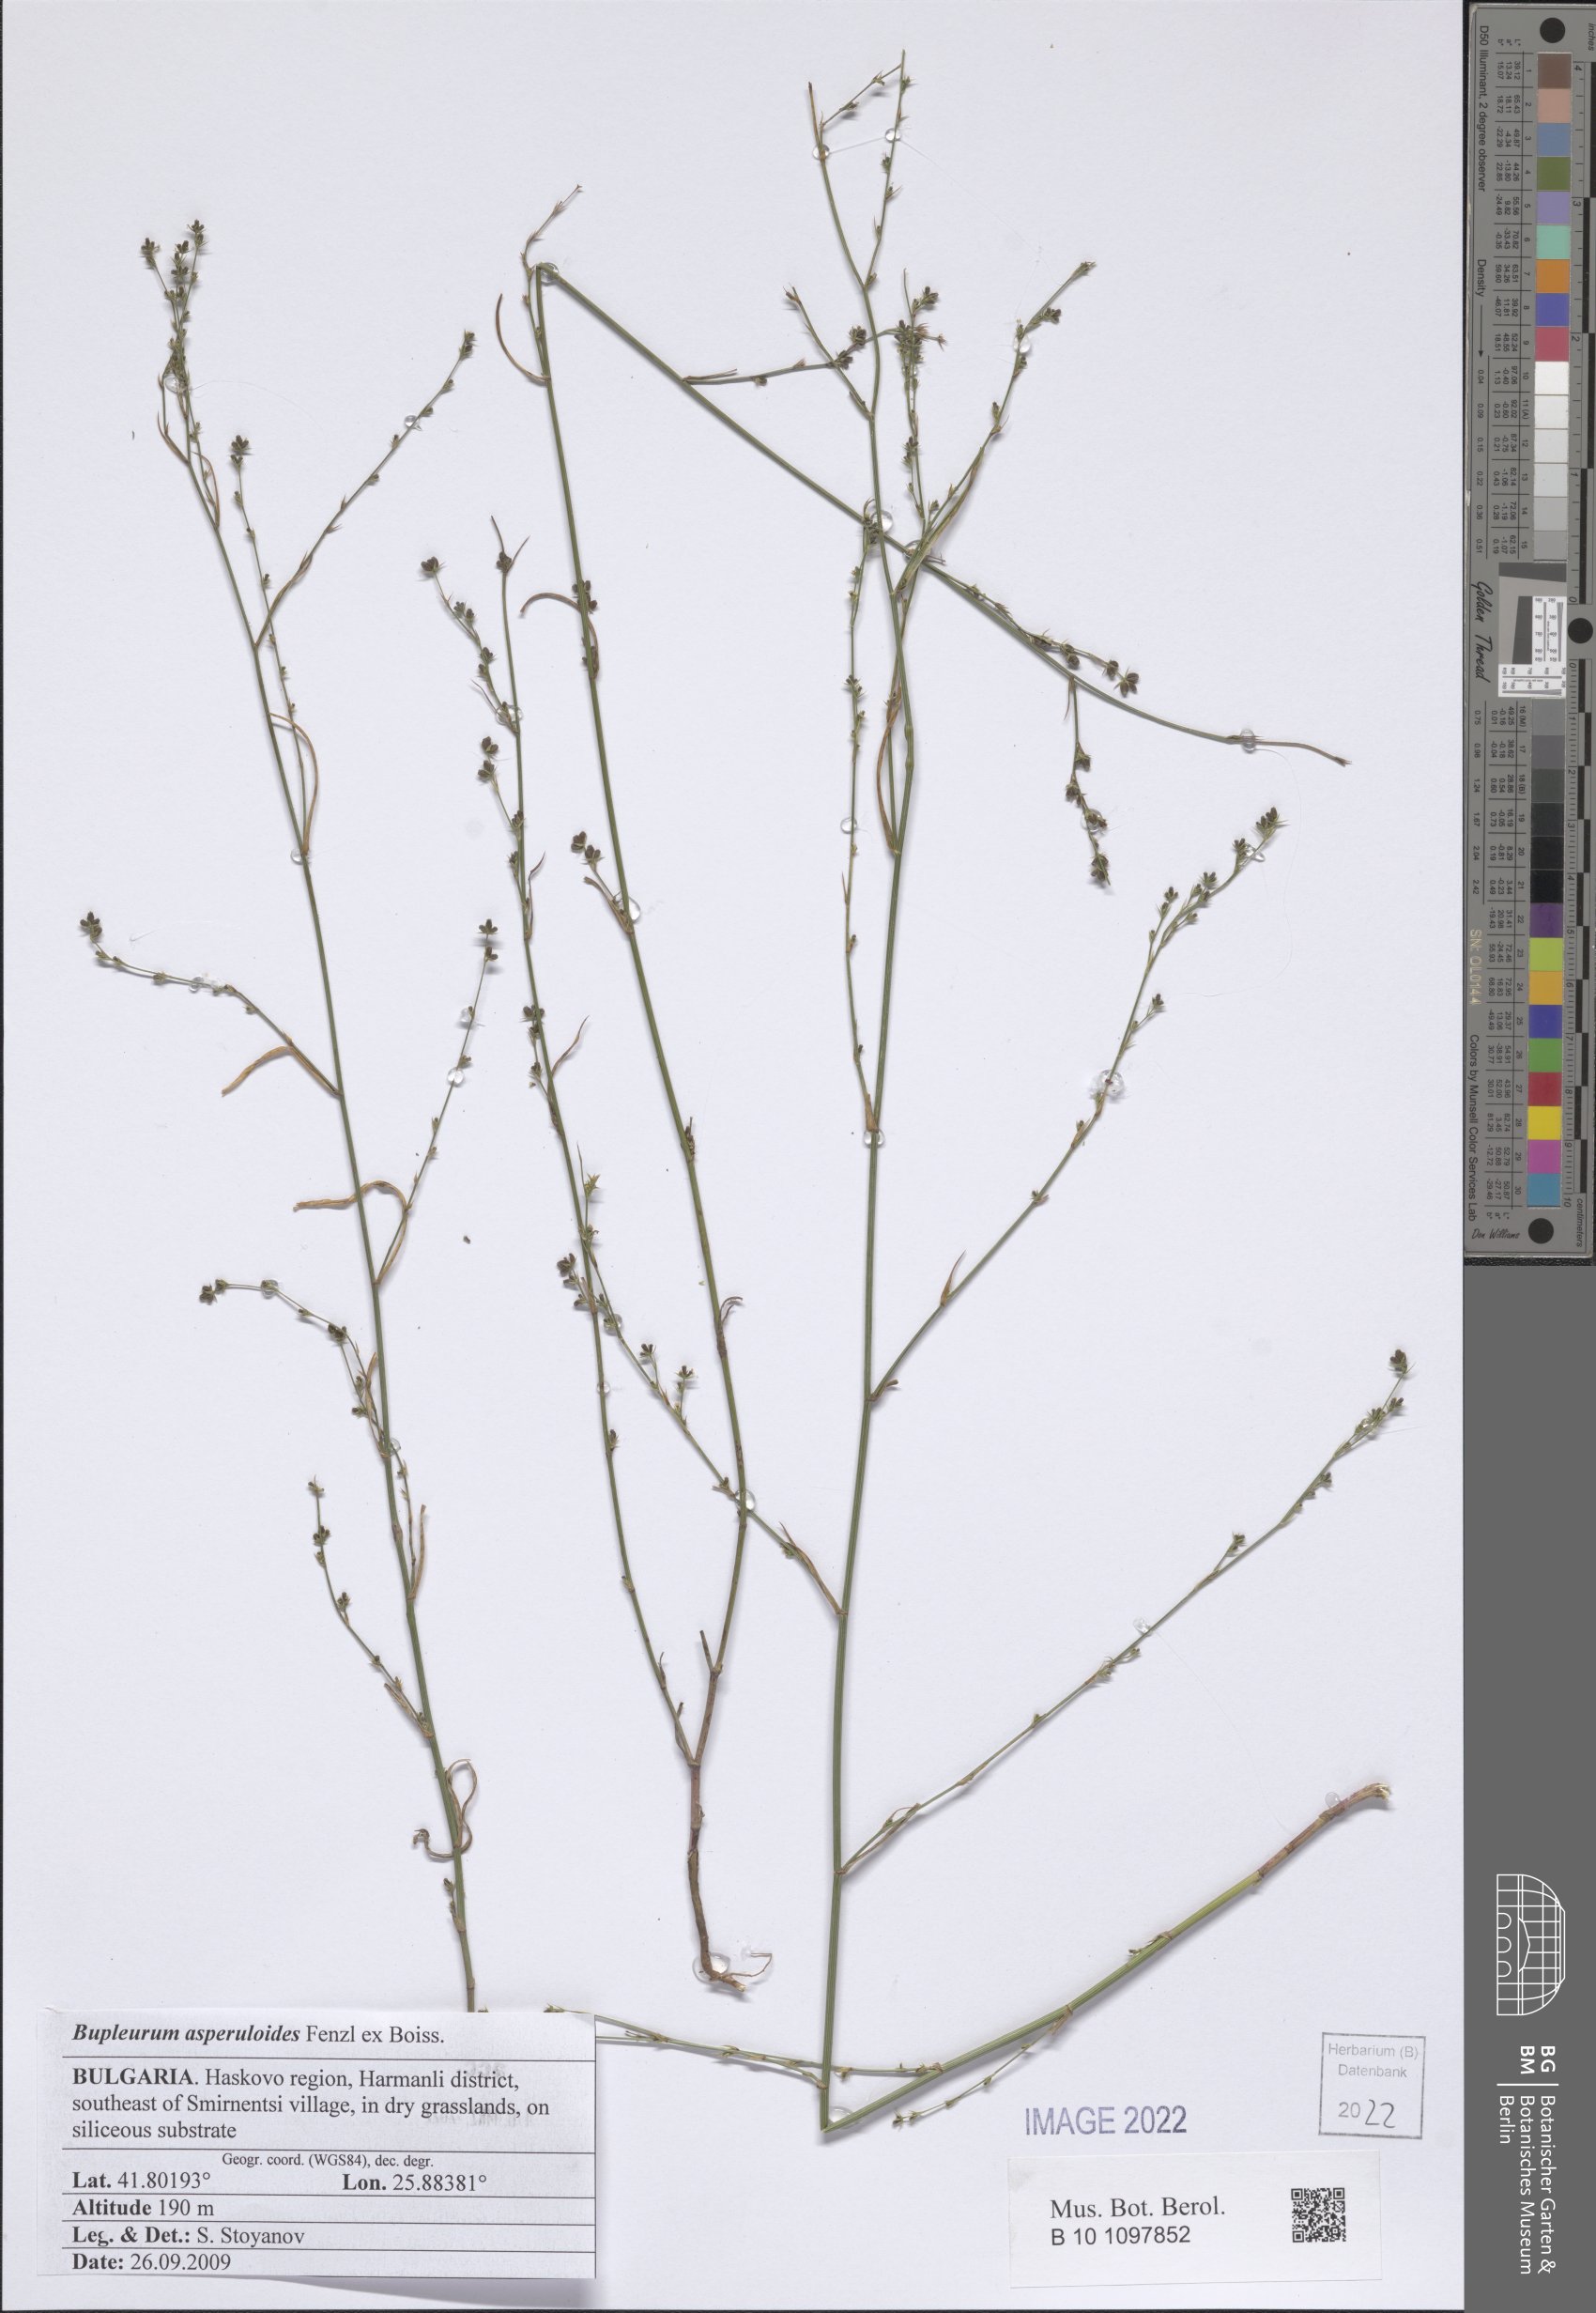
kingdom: Plantae
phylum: Tracheophyta
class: Magnoliopsida
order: Apiales
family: Apiaceae
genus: Bupleurum
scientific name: Bupleurum asperuloides
